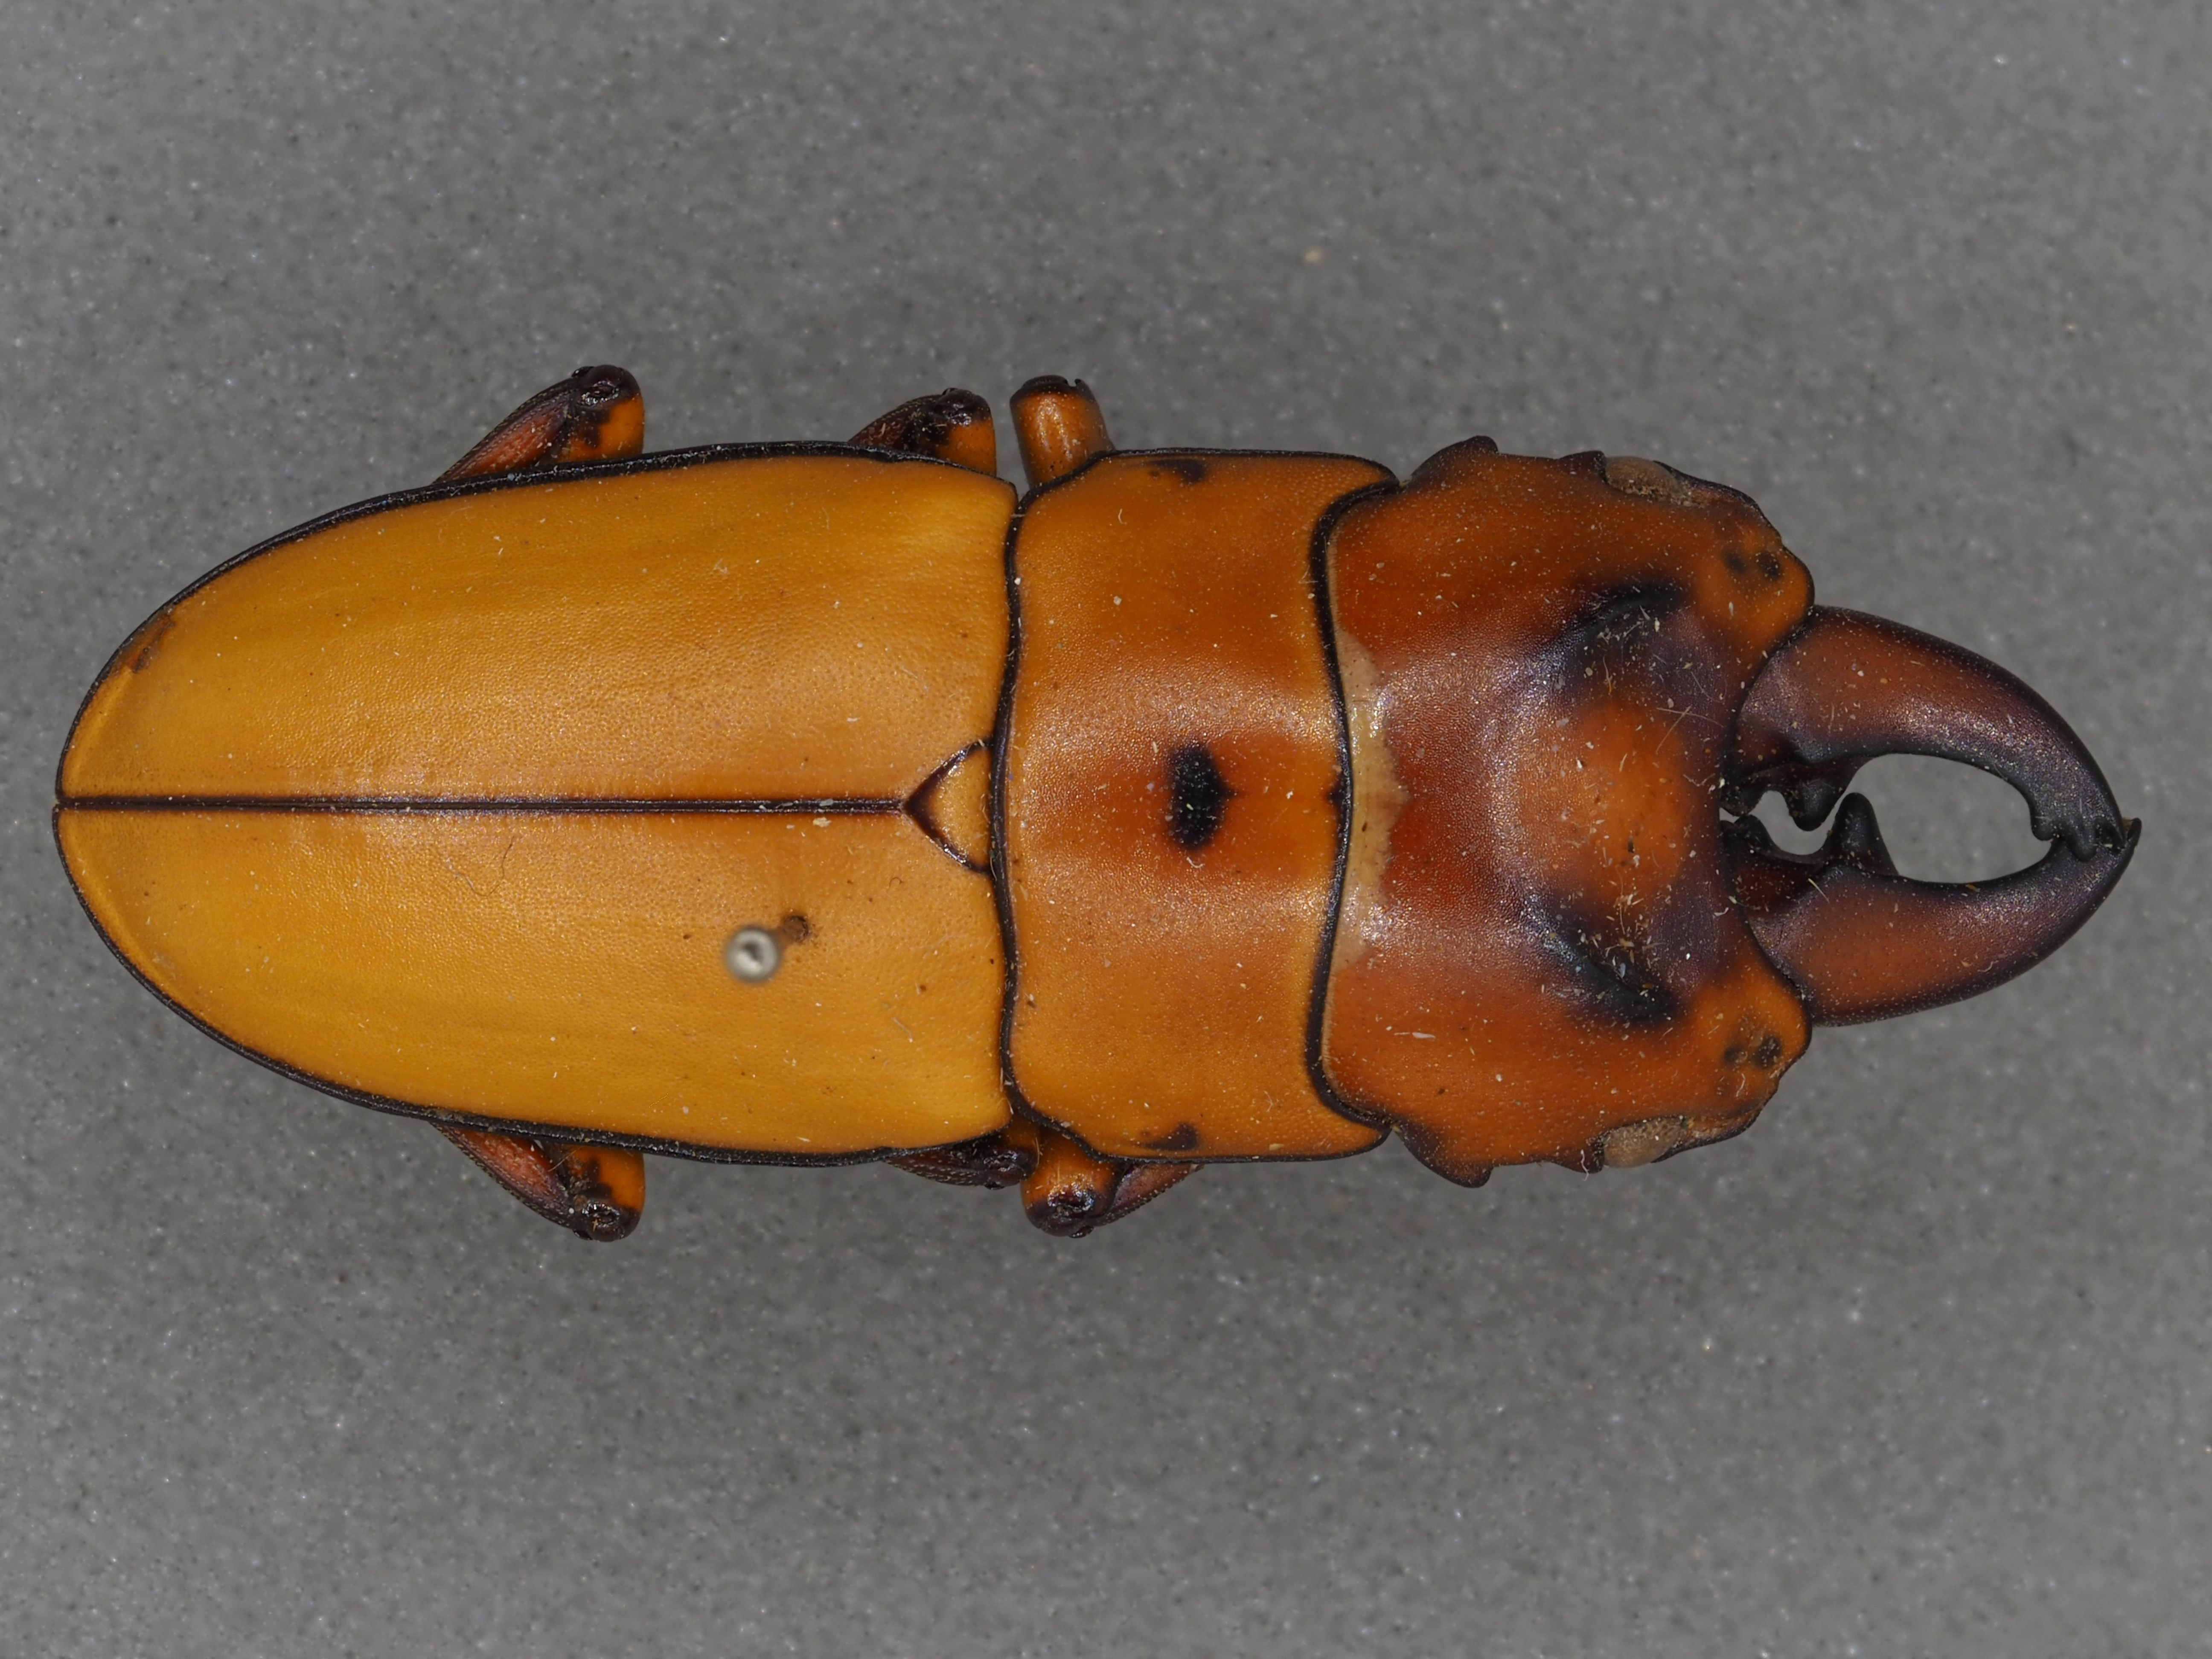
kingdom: Animalia
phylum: Arthropoda
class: Insecta
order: Coleoptera
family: Lucanidae
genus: Prosopocoilus
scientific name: Prosopocoilus occipitalis
